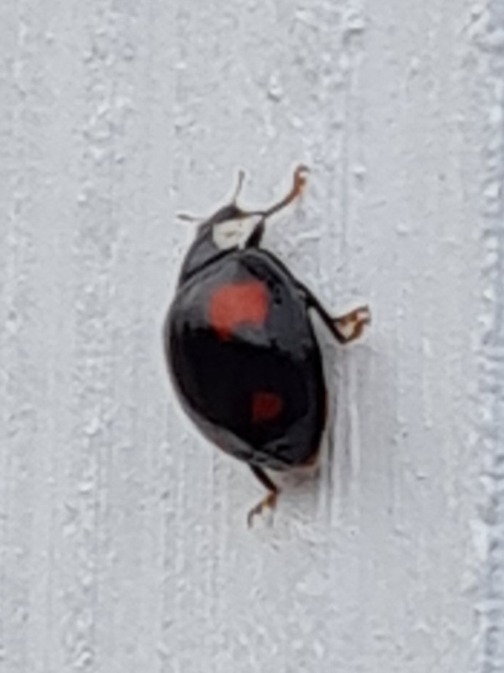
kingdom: Animalia
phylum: Arthropoda
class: Insecta
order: Coleoptera
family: Coccinellidae
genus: Harmonia
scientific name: Harmonia axyridis
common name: Harlekinmariehøne
